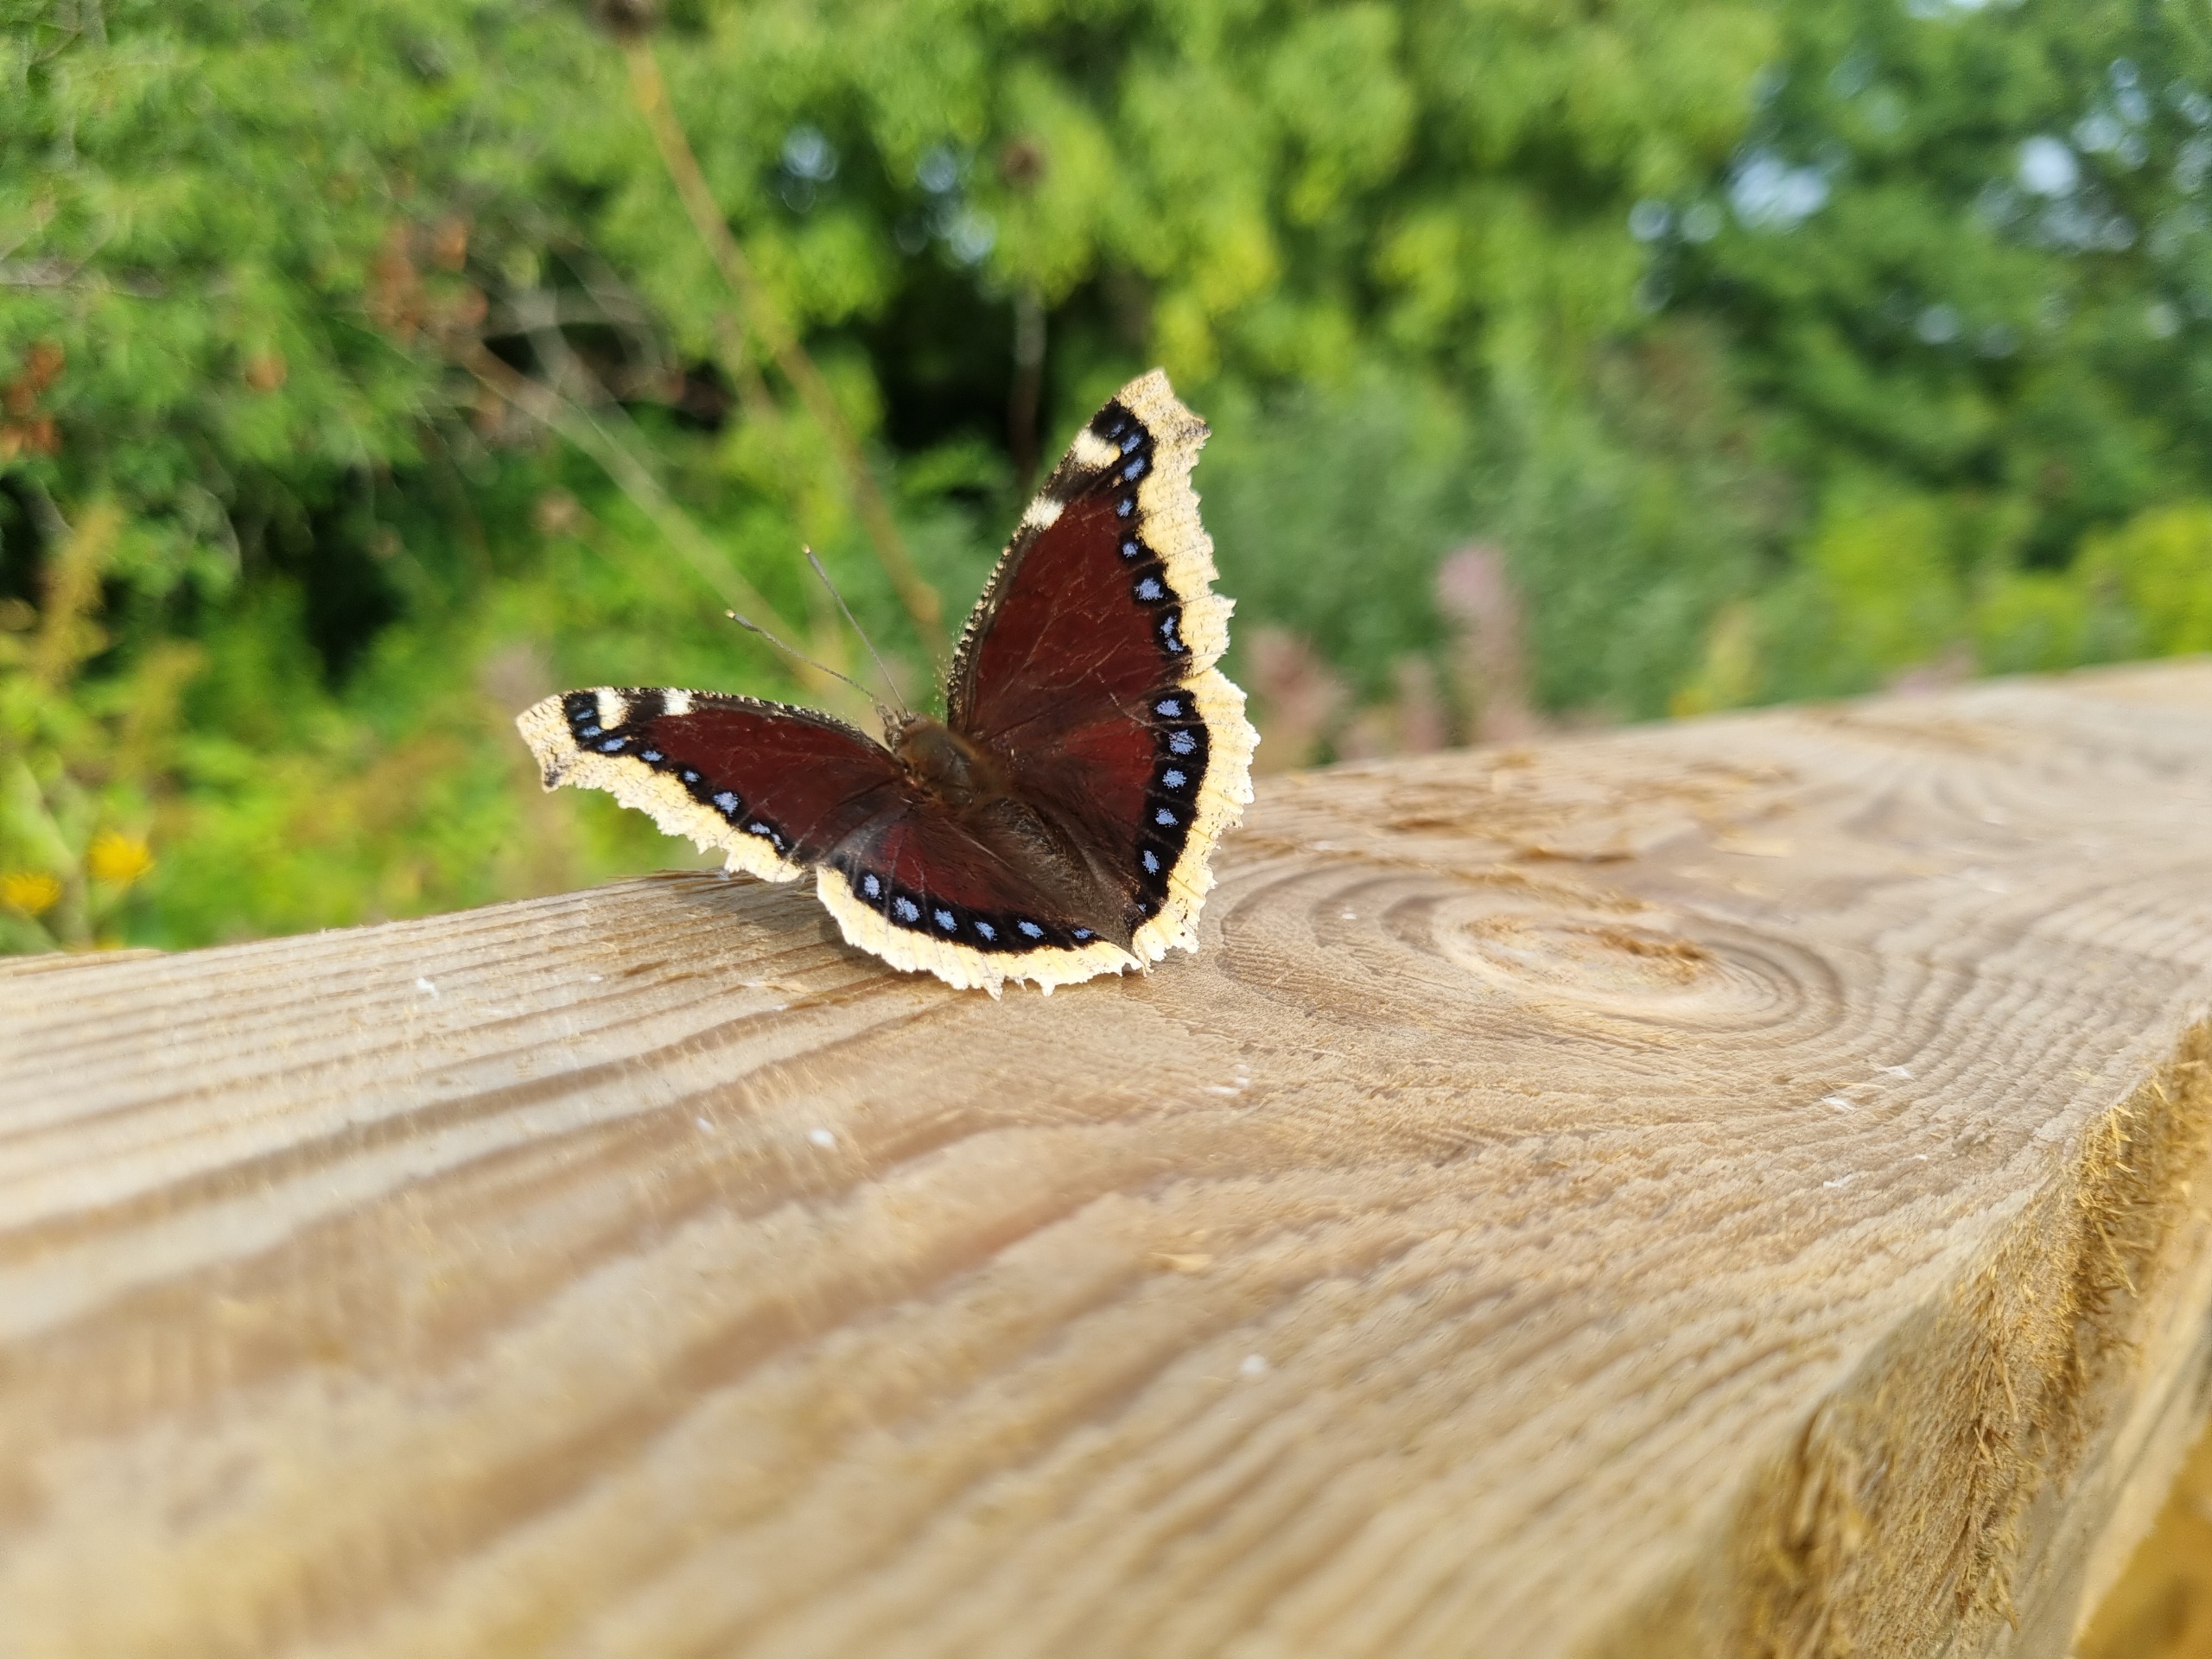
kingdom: Animalia
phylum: Arthropoda
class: Insecta
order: Lepidoptera
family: Nymphalidae
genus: Nymphalis
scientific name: Nymphalis antiopa
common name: Sørgekåbe
